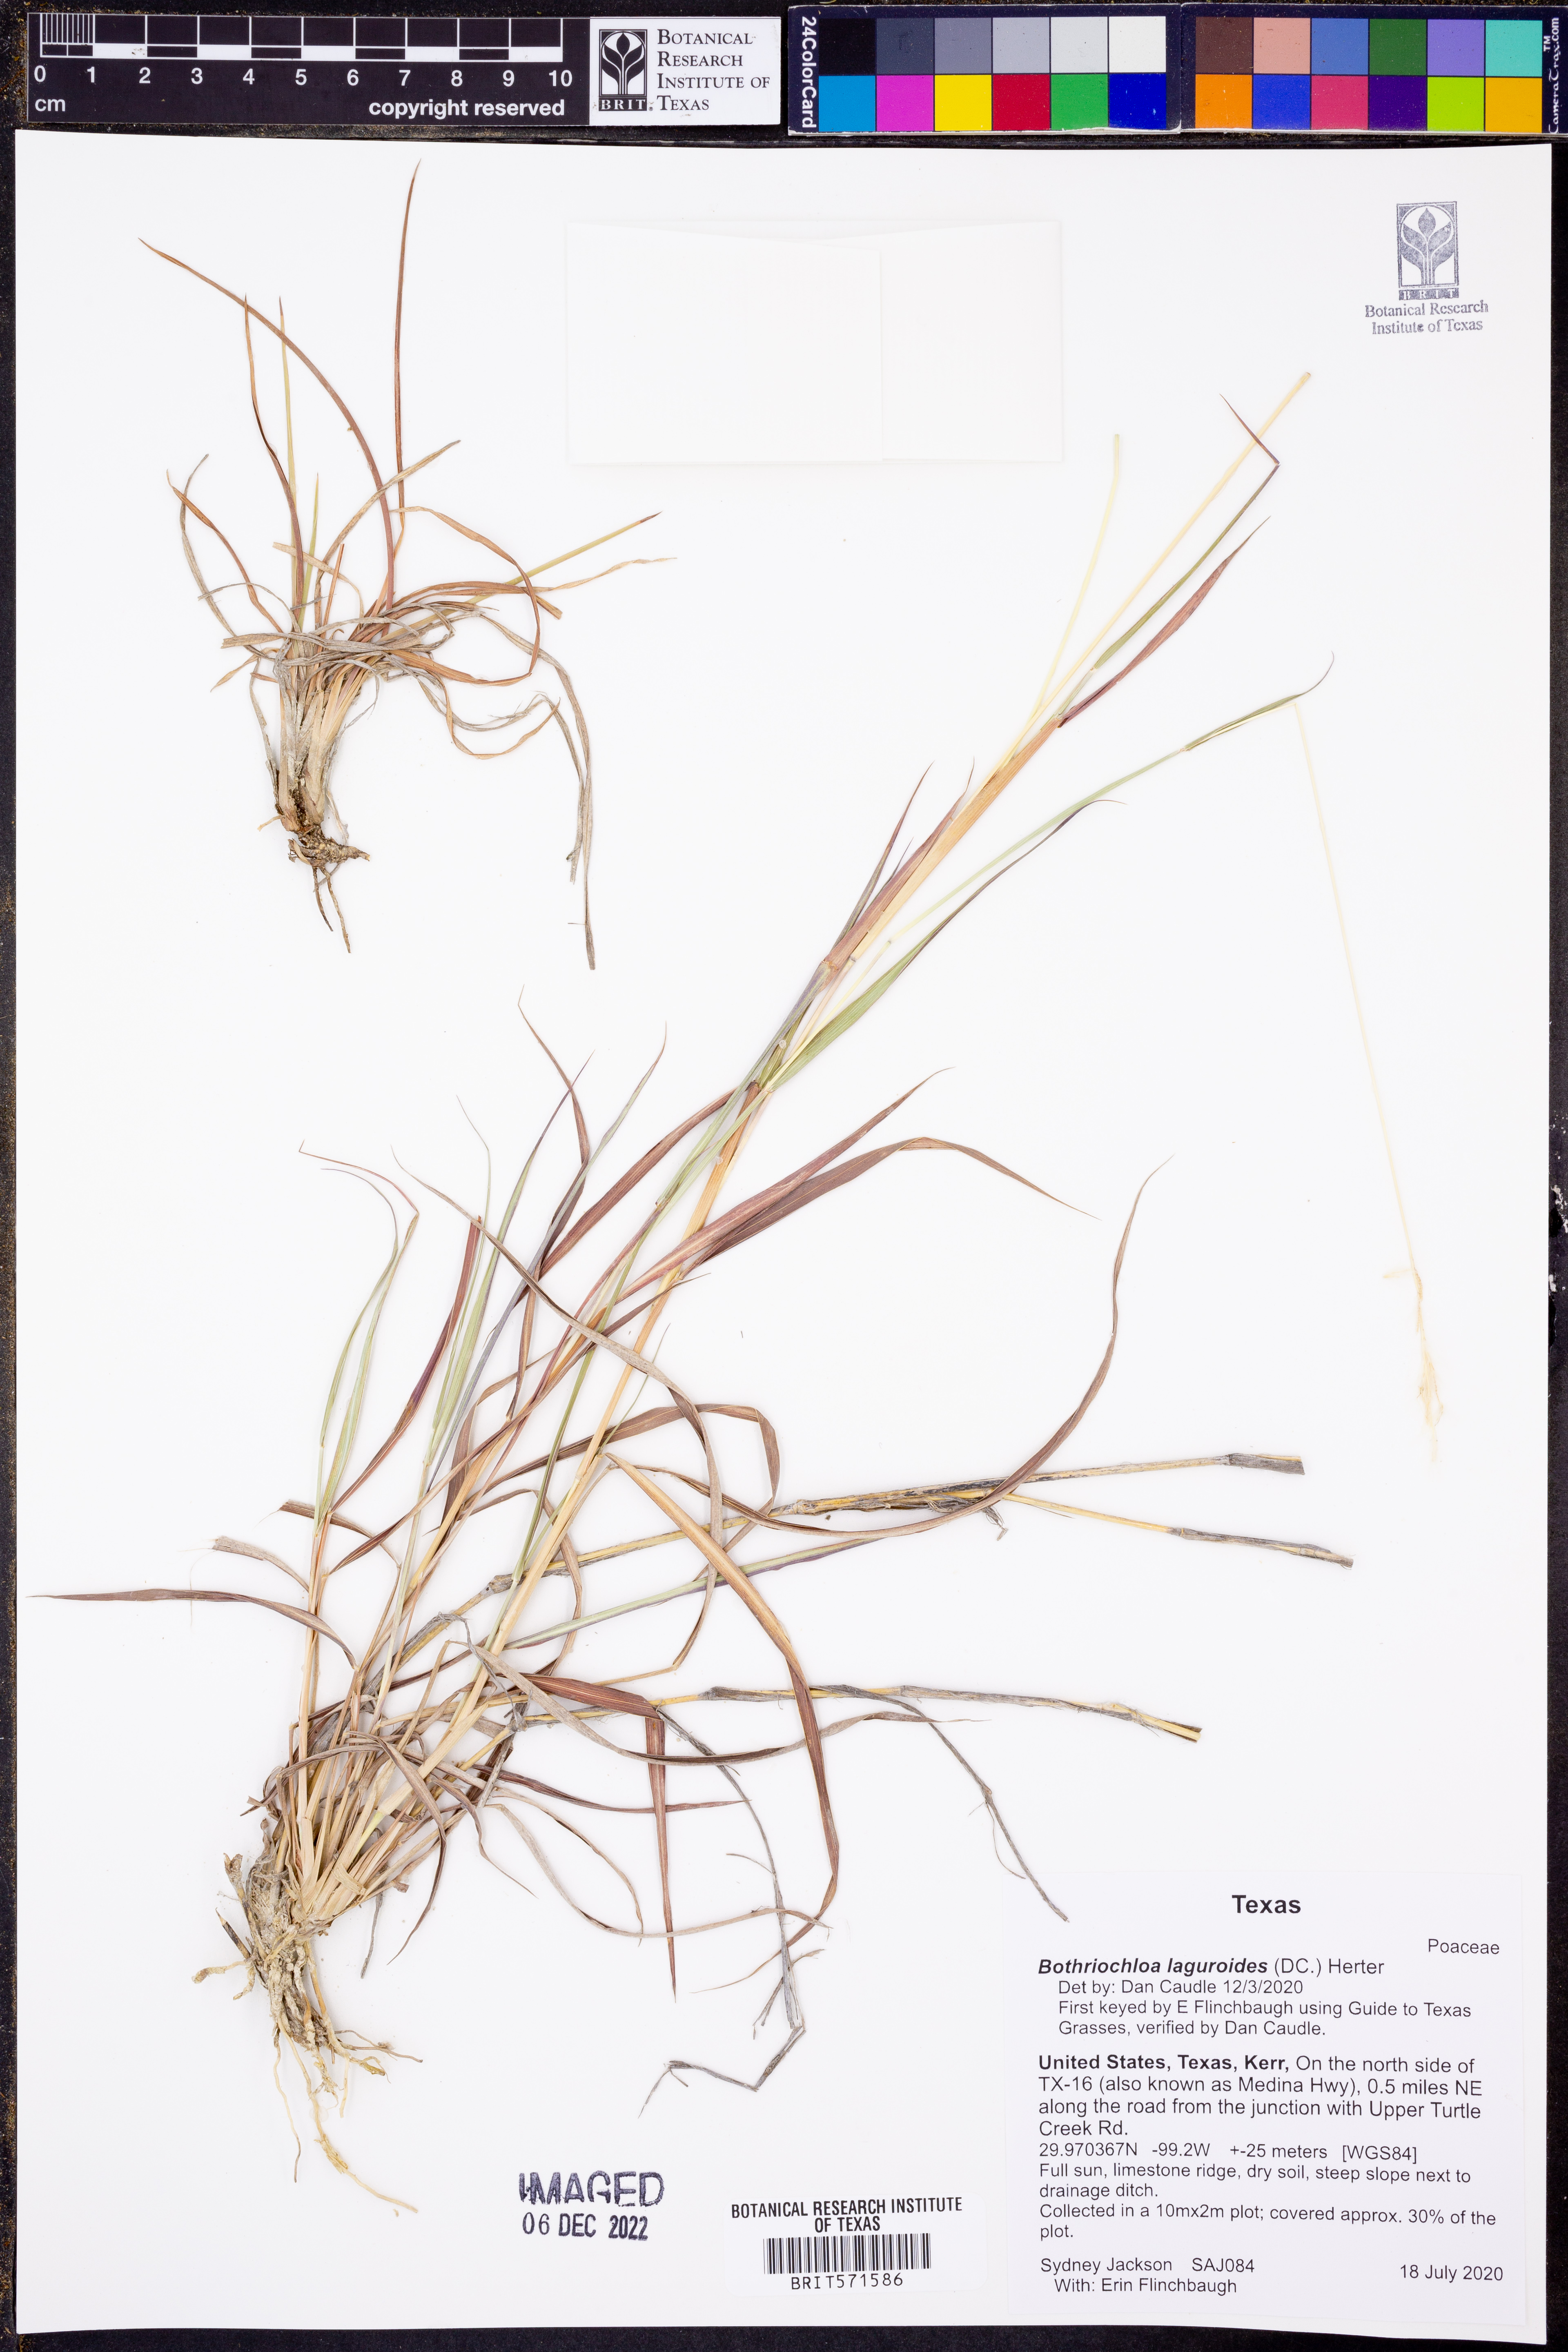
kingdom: Plantae
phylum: Tracheophyta
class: Liliopsida
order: Poales
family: Poaceae
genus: Bothriochloa
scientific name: Bothriochloa laguroides
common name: Silver bluestem
